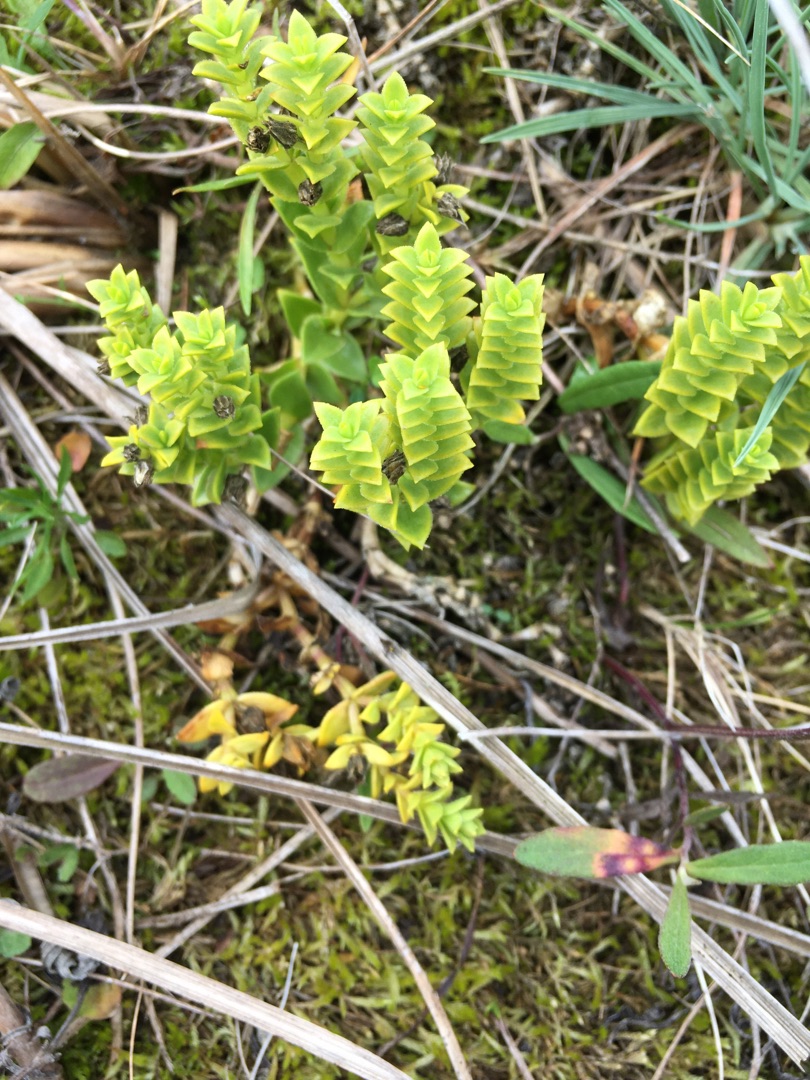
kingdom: Plantae
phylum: Tracheophyta
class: Magnoliopsida
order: Caryophyllales
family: Caryophyllaceae
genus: Honckenya
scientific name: Honckenya peploides
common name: Strandarve
